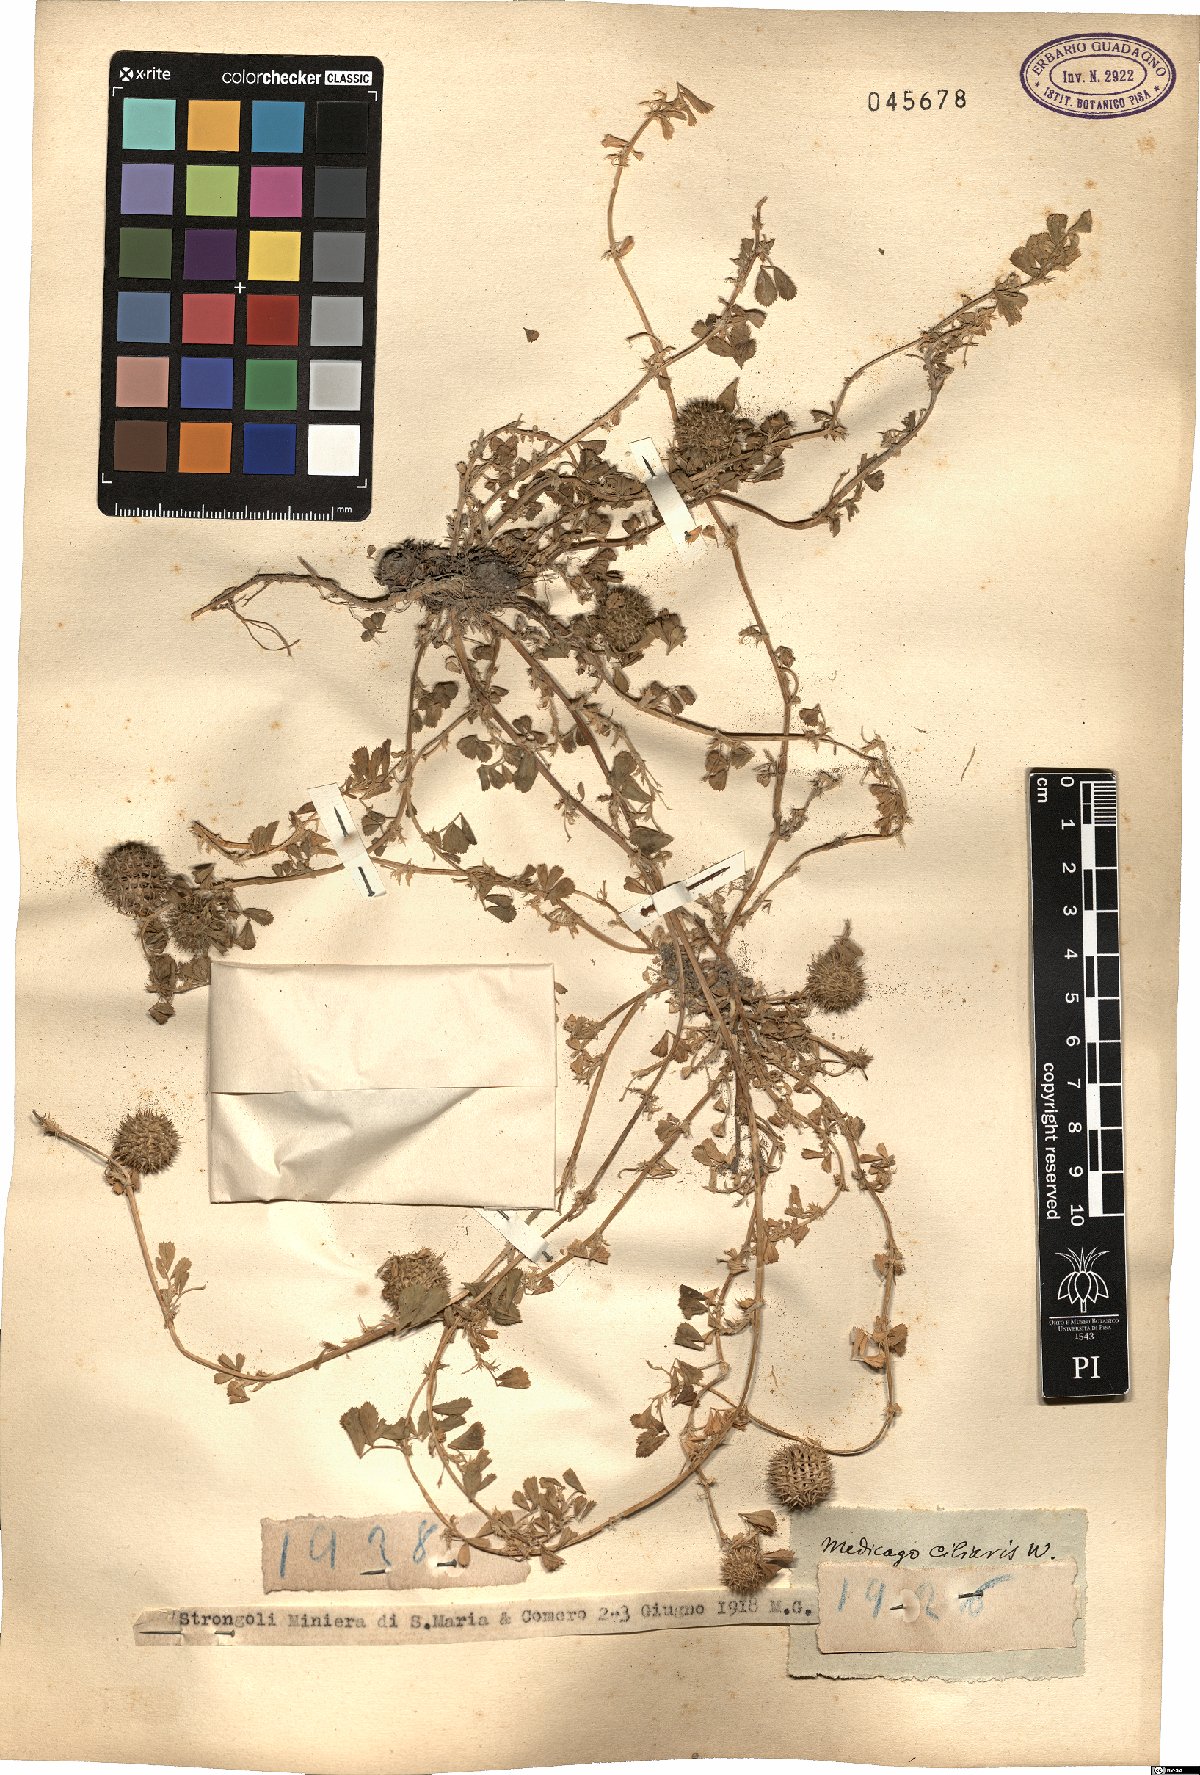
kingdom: Plantae
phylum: Tracheophyta
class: Magnoliopsida
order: Fabales
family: Fabaceae
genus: Medicago
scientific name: Medicago ciliaris
